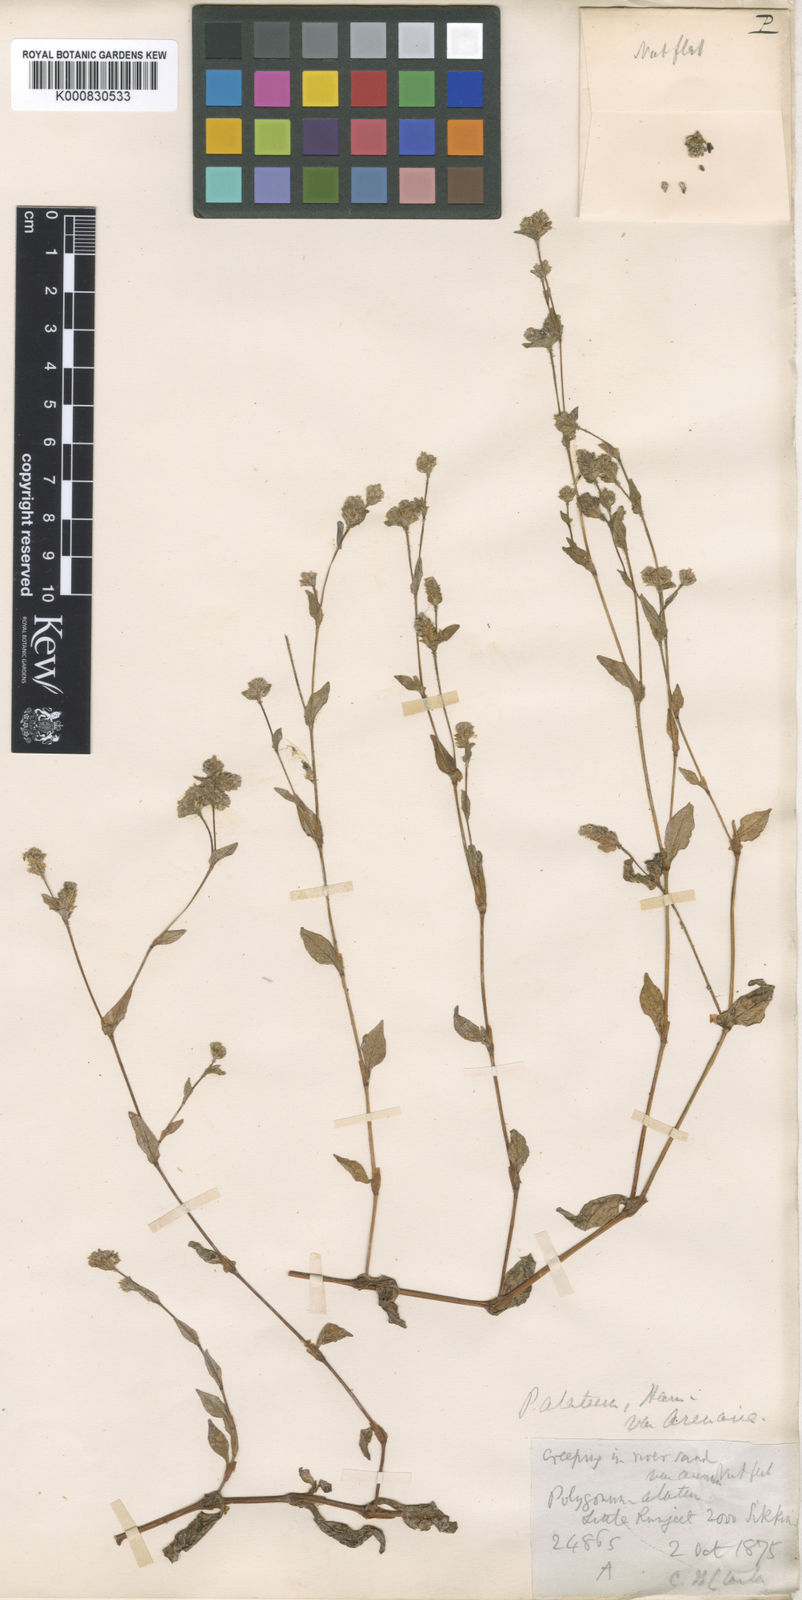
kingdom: Plantae
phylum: Tracheophyta
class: Magnoliopsida
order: Caryophyllales
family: Polygonaceae
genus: Polygonum
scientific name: Polygonum
